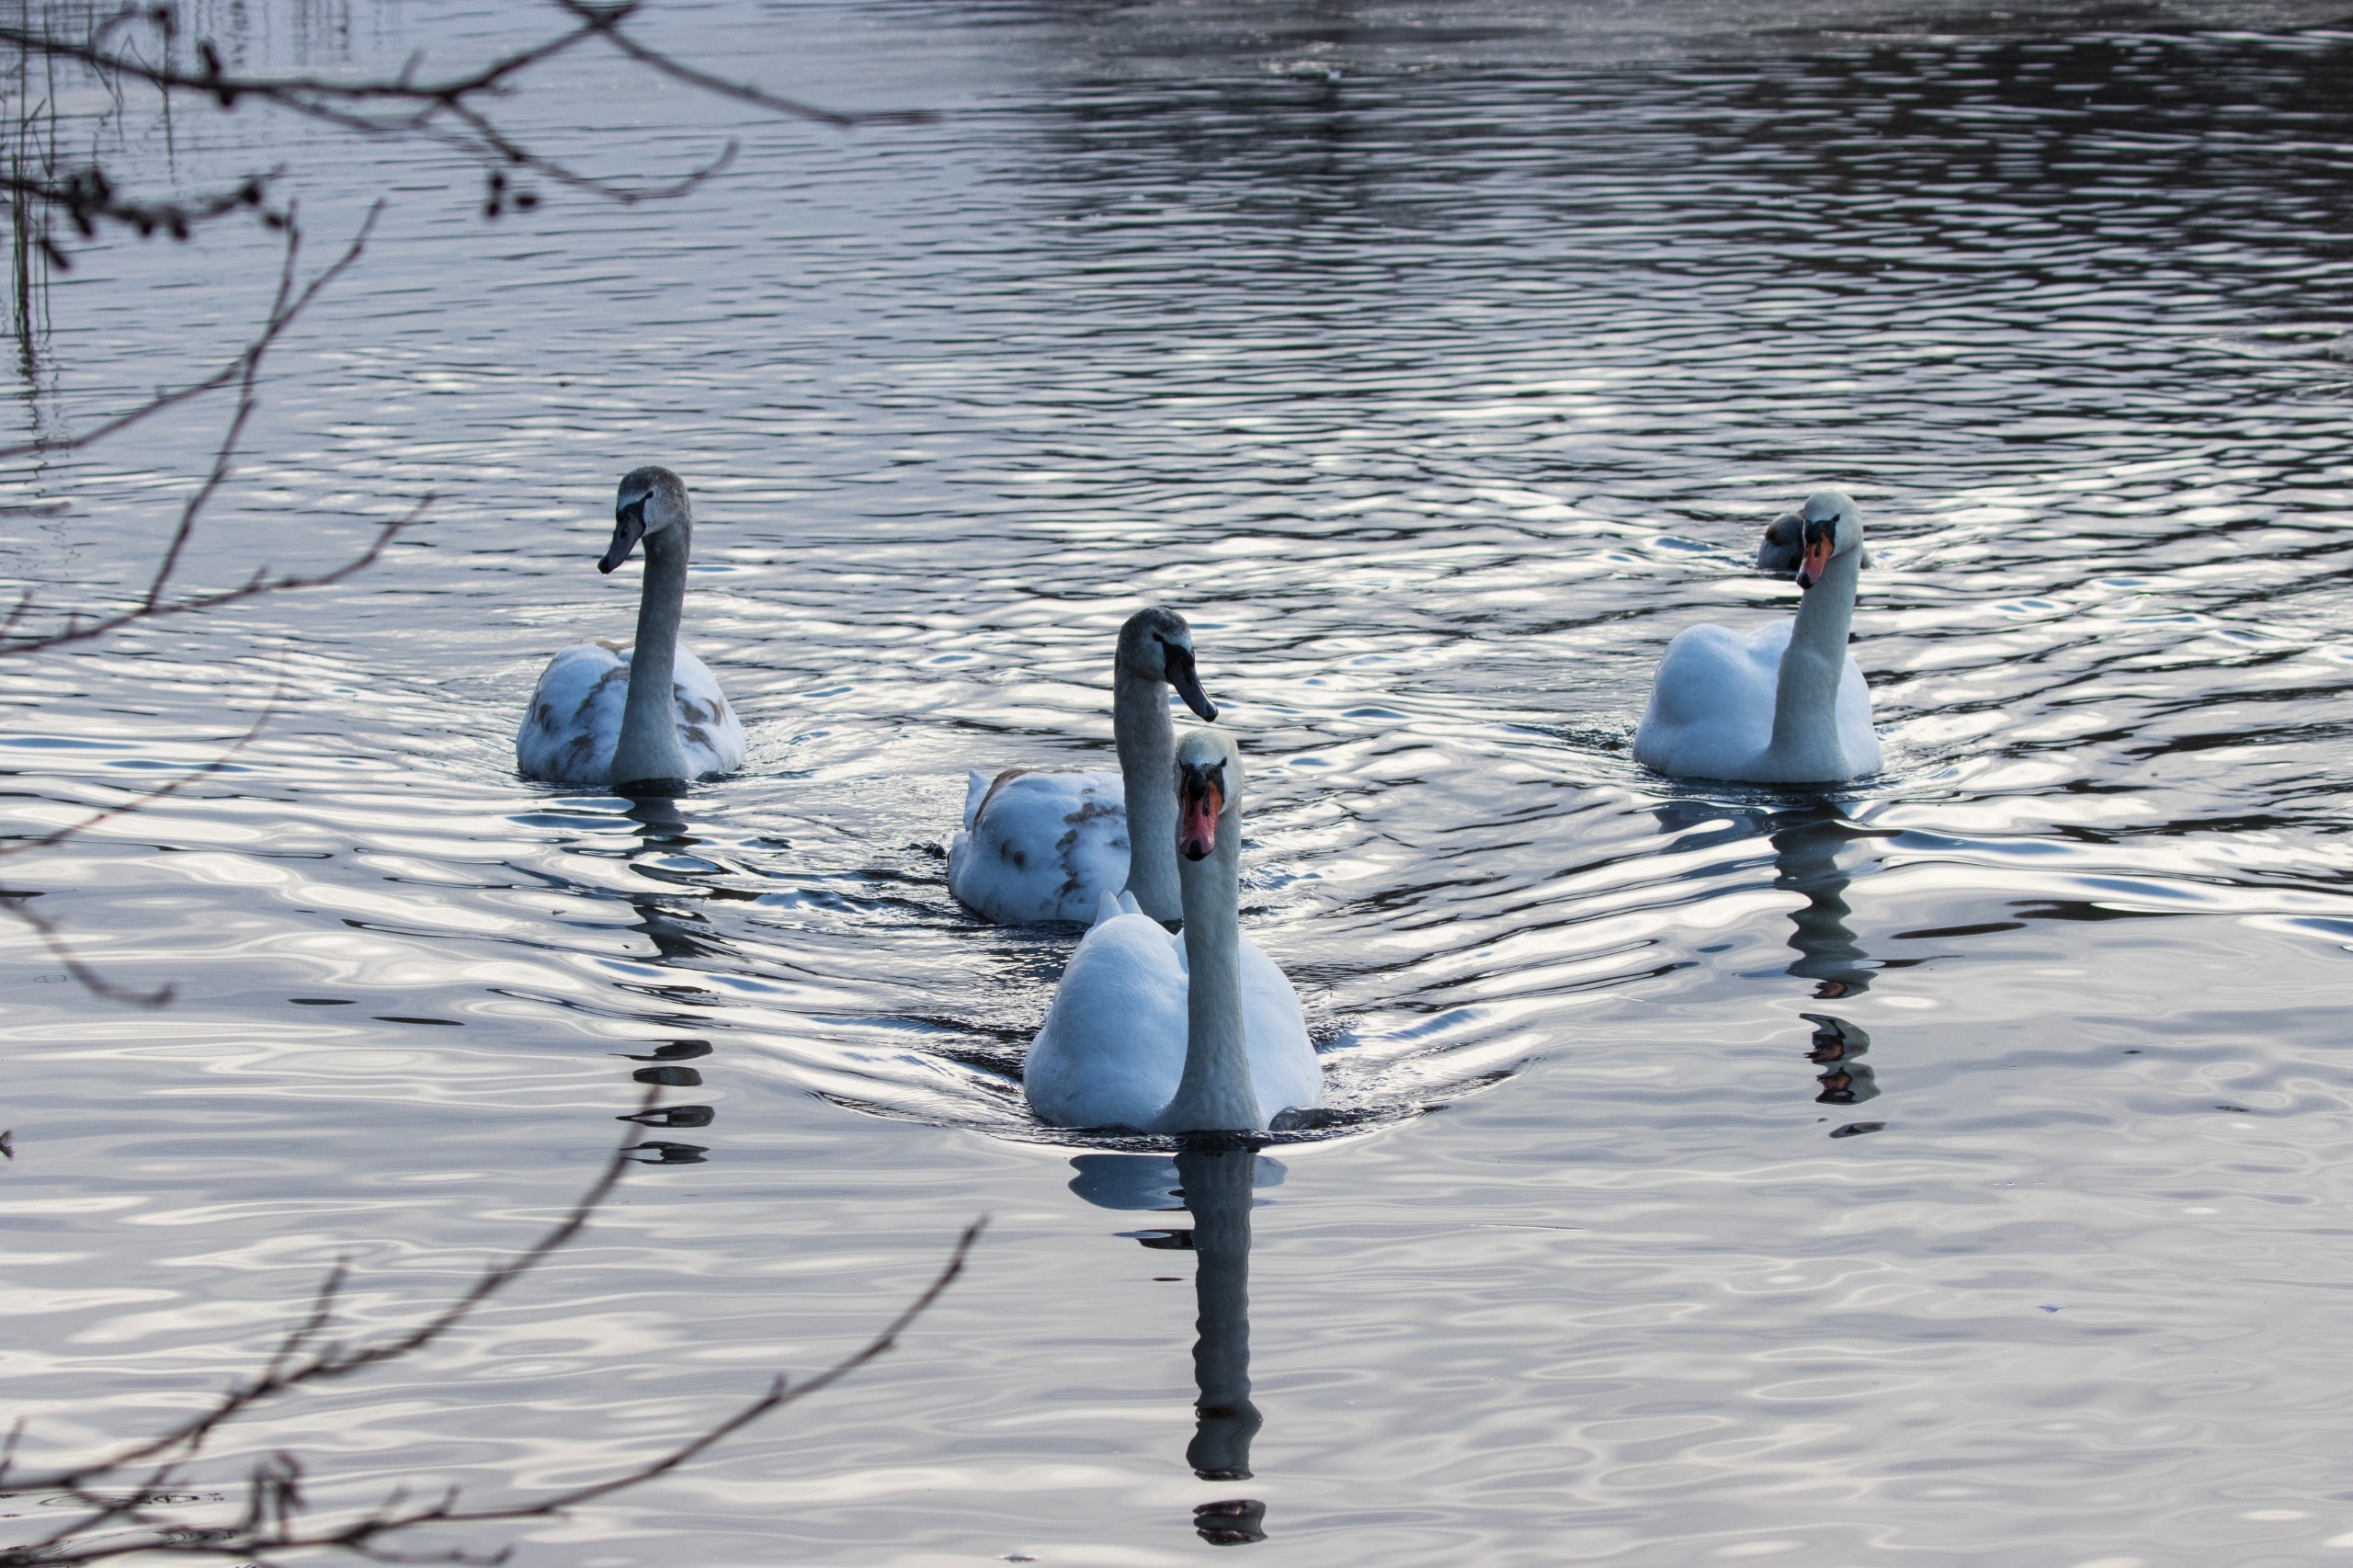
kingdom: Animalia
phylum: Chordata
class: Aves
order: Anseriformes
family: Anatidae
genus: Cygnus
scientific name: Cygnus olor
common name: Knopsvane
